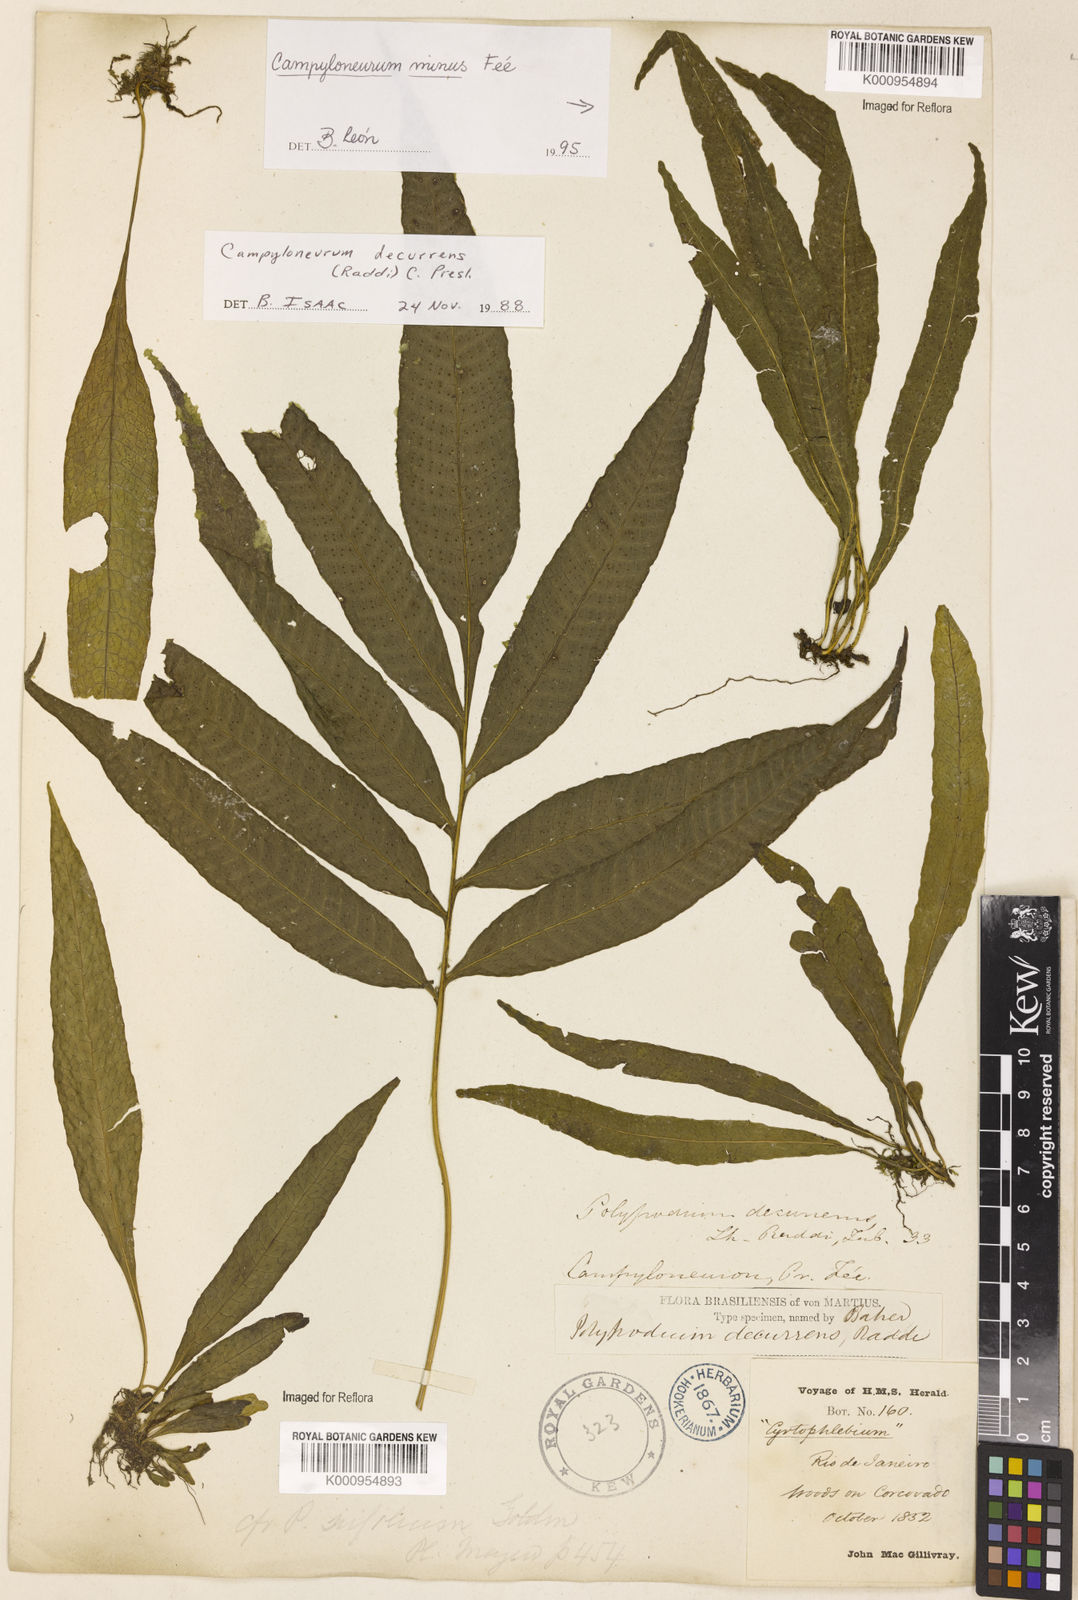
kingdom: Plantae
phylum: Tracheophyta
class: Polypodiopsida
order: Polypodiales
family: Polypodiaceae
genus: Campyloneurum
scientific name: Campyloneurum decurrens
